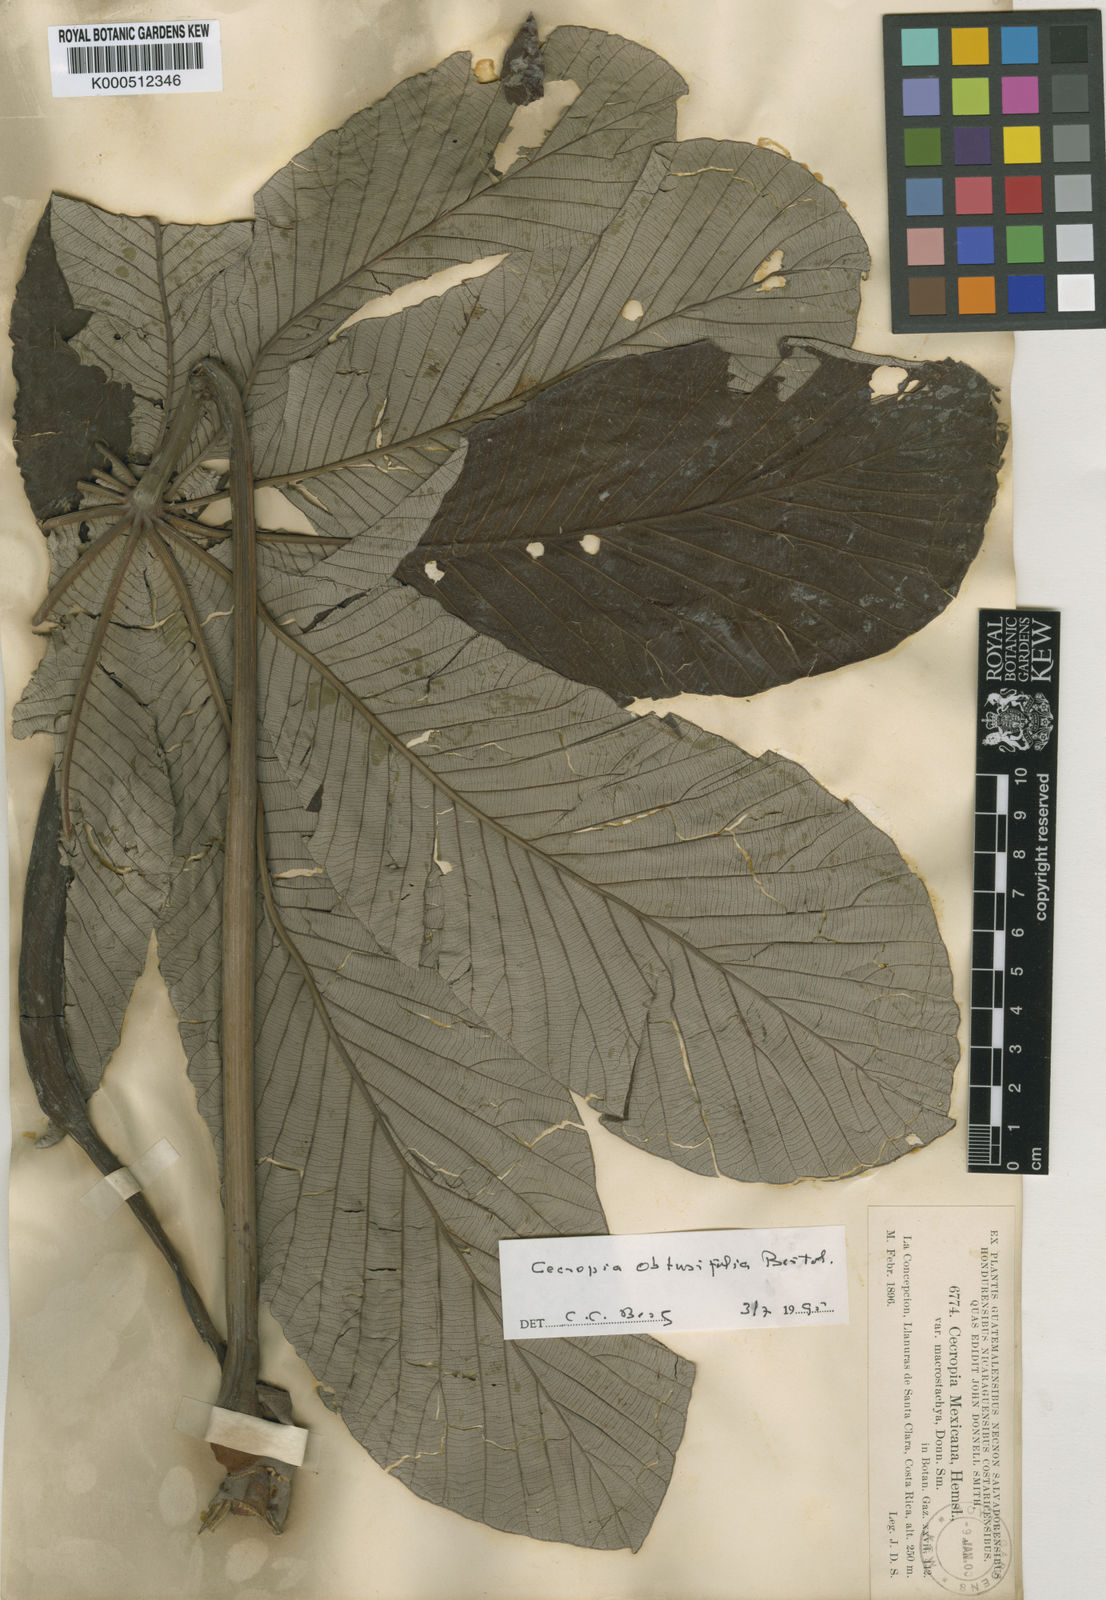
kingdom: Plantae
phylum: Tracheophyta
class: Magnoliopsida
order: Rosales
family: Urticaceae
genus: Cecropia
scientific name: Cecropia obtusifolia
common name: Trumpet tree
